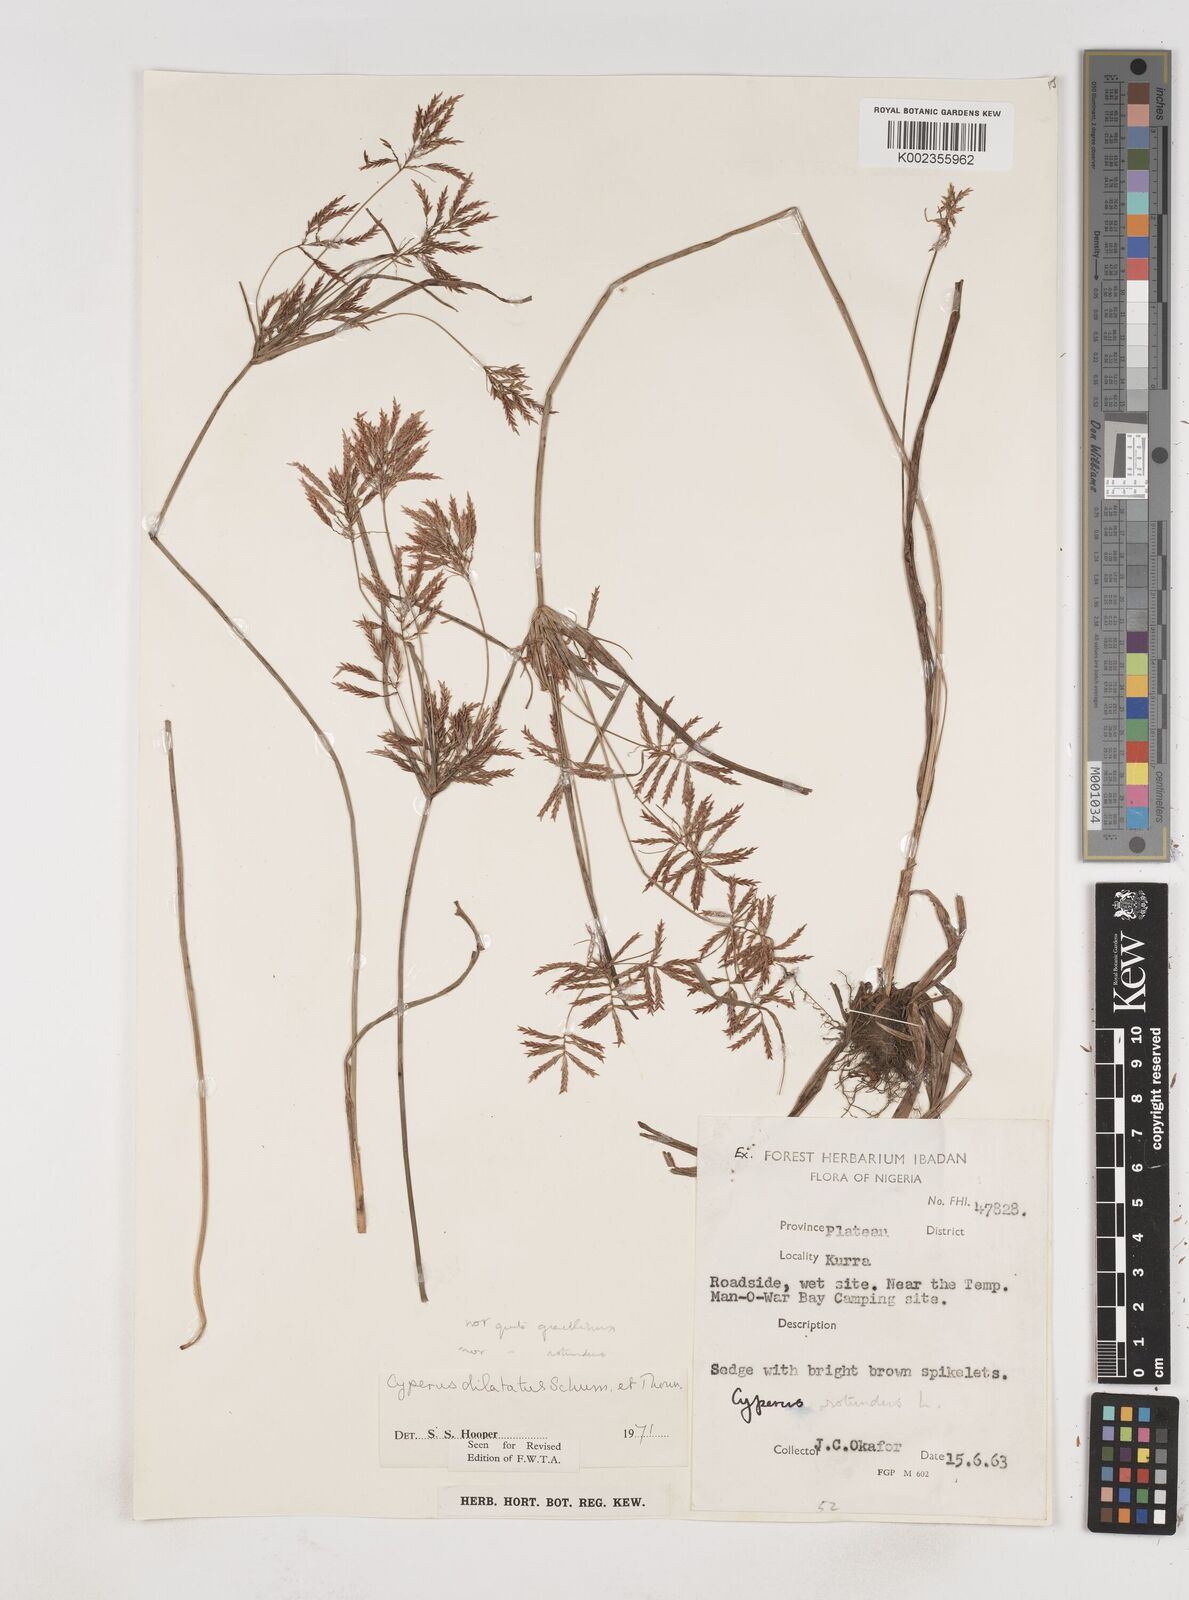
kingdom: Plantae
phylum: Tracheophyta
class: Liliopsida
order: Poales
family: Cyperaceae
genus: Cyperus
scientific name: Cyperus dilatatus
